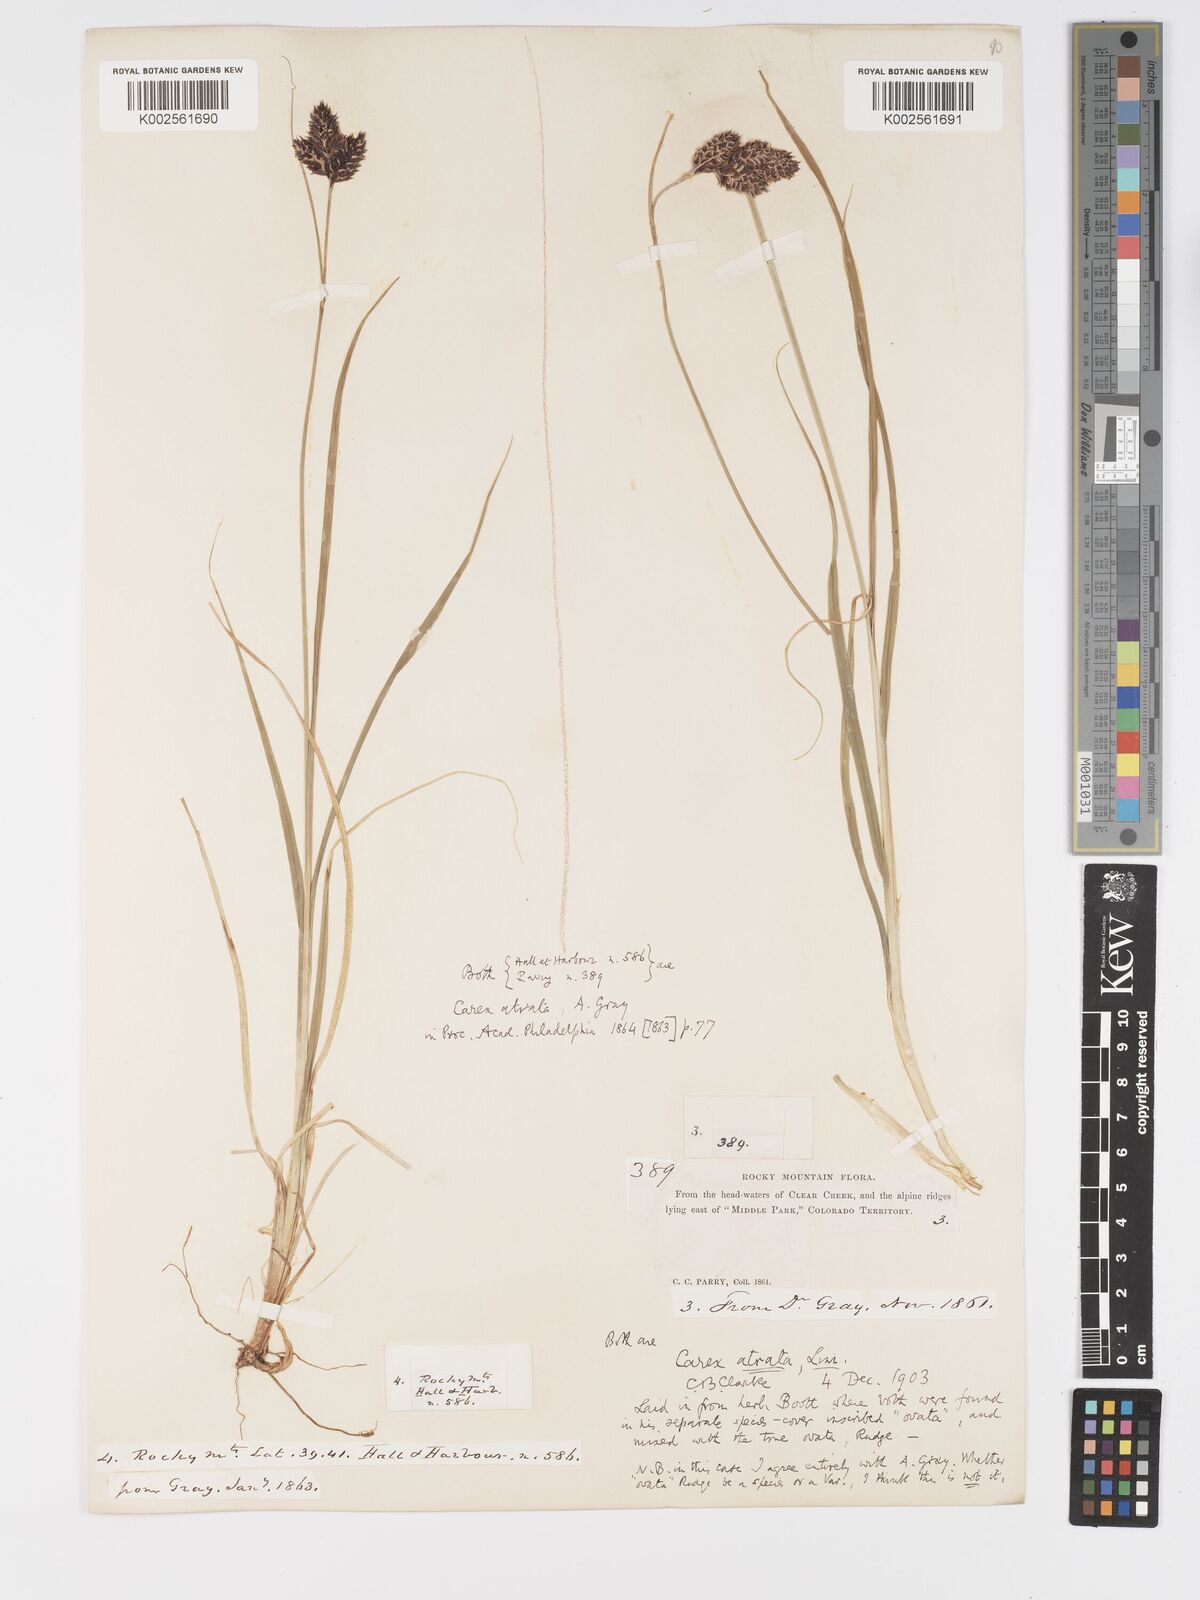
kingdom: Plantae
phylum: Tracheophyta
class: Liliopsida
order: Poales
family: Cyperaceae
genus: Carex
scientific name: Carex chalciolepis
